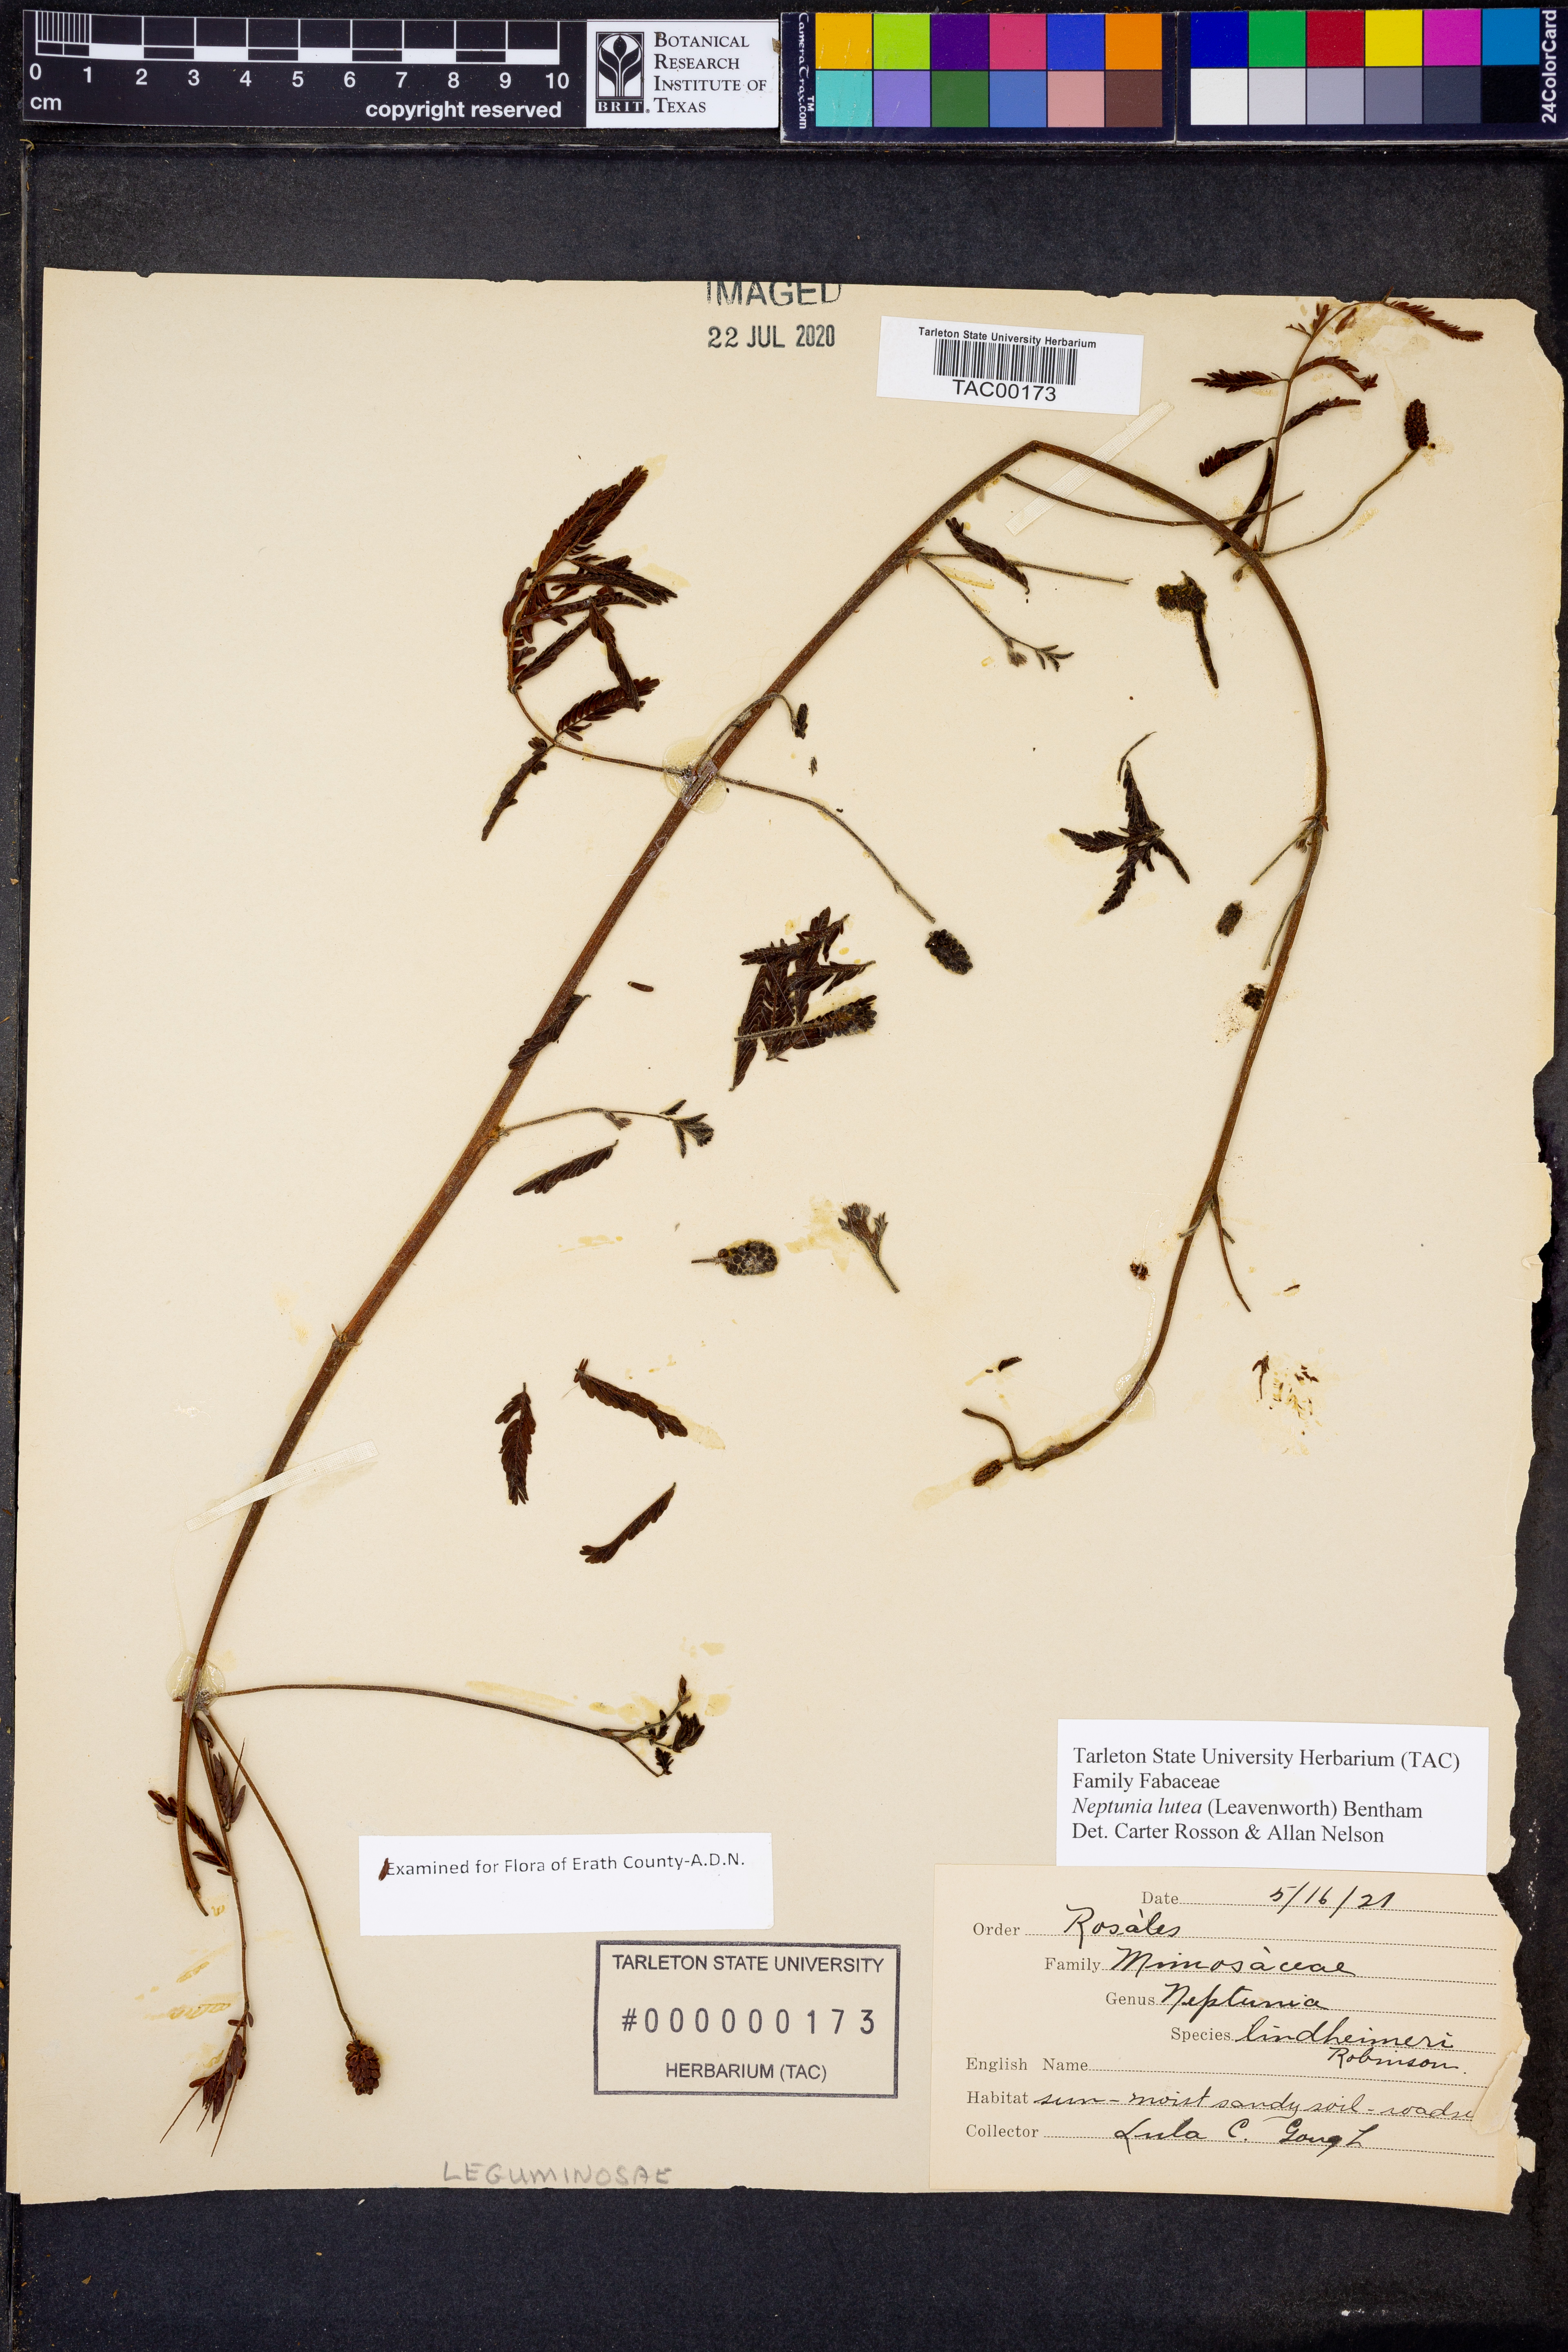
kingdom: Plantae
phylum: Tracheophyta
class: Magnoliopsida
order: Fabales
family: Fabaceae
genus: Neptunia
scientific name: Neptunia lutea
